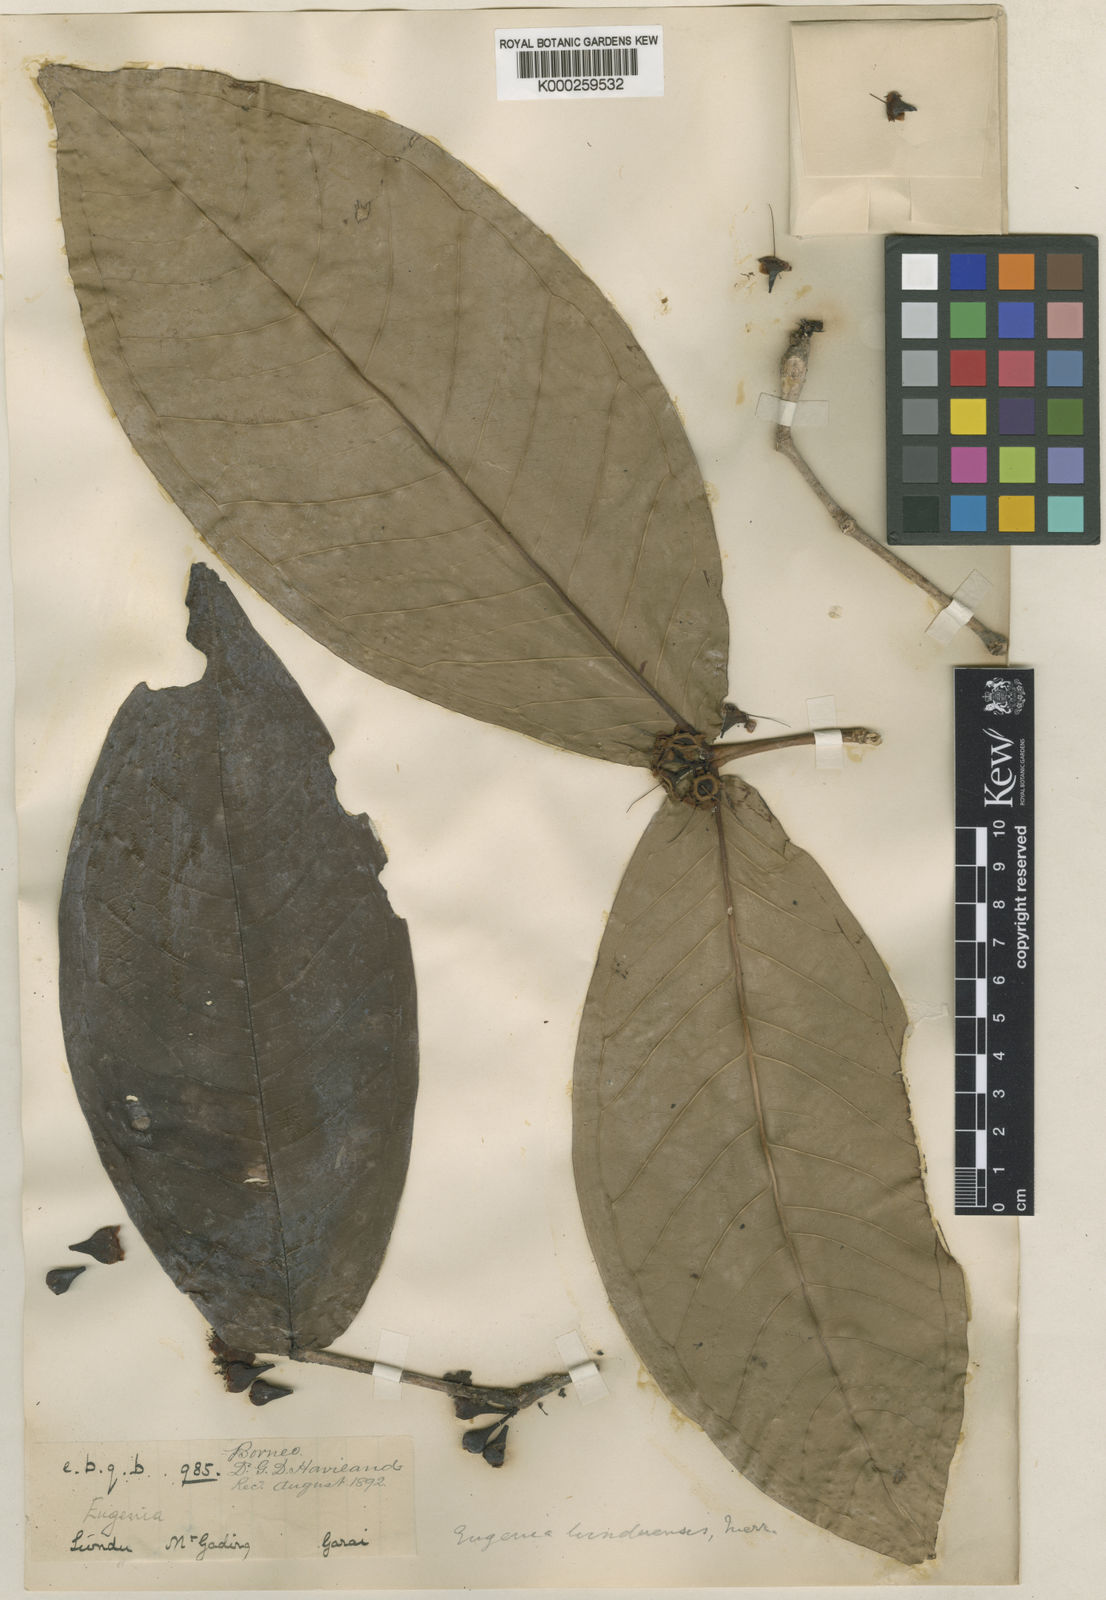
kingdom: Plantae
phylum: Tracheophyta
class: Magnoliopsida
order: Myrtales
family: Myrtaceae
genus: Syzygium
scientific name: Syzygium lunduense
